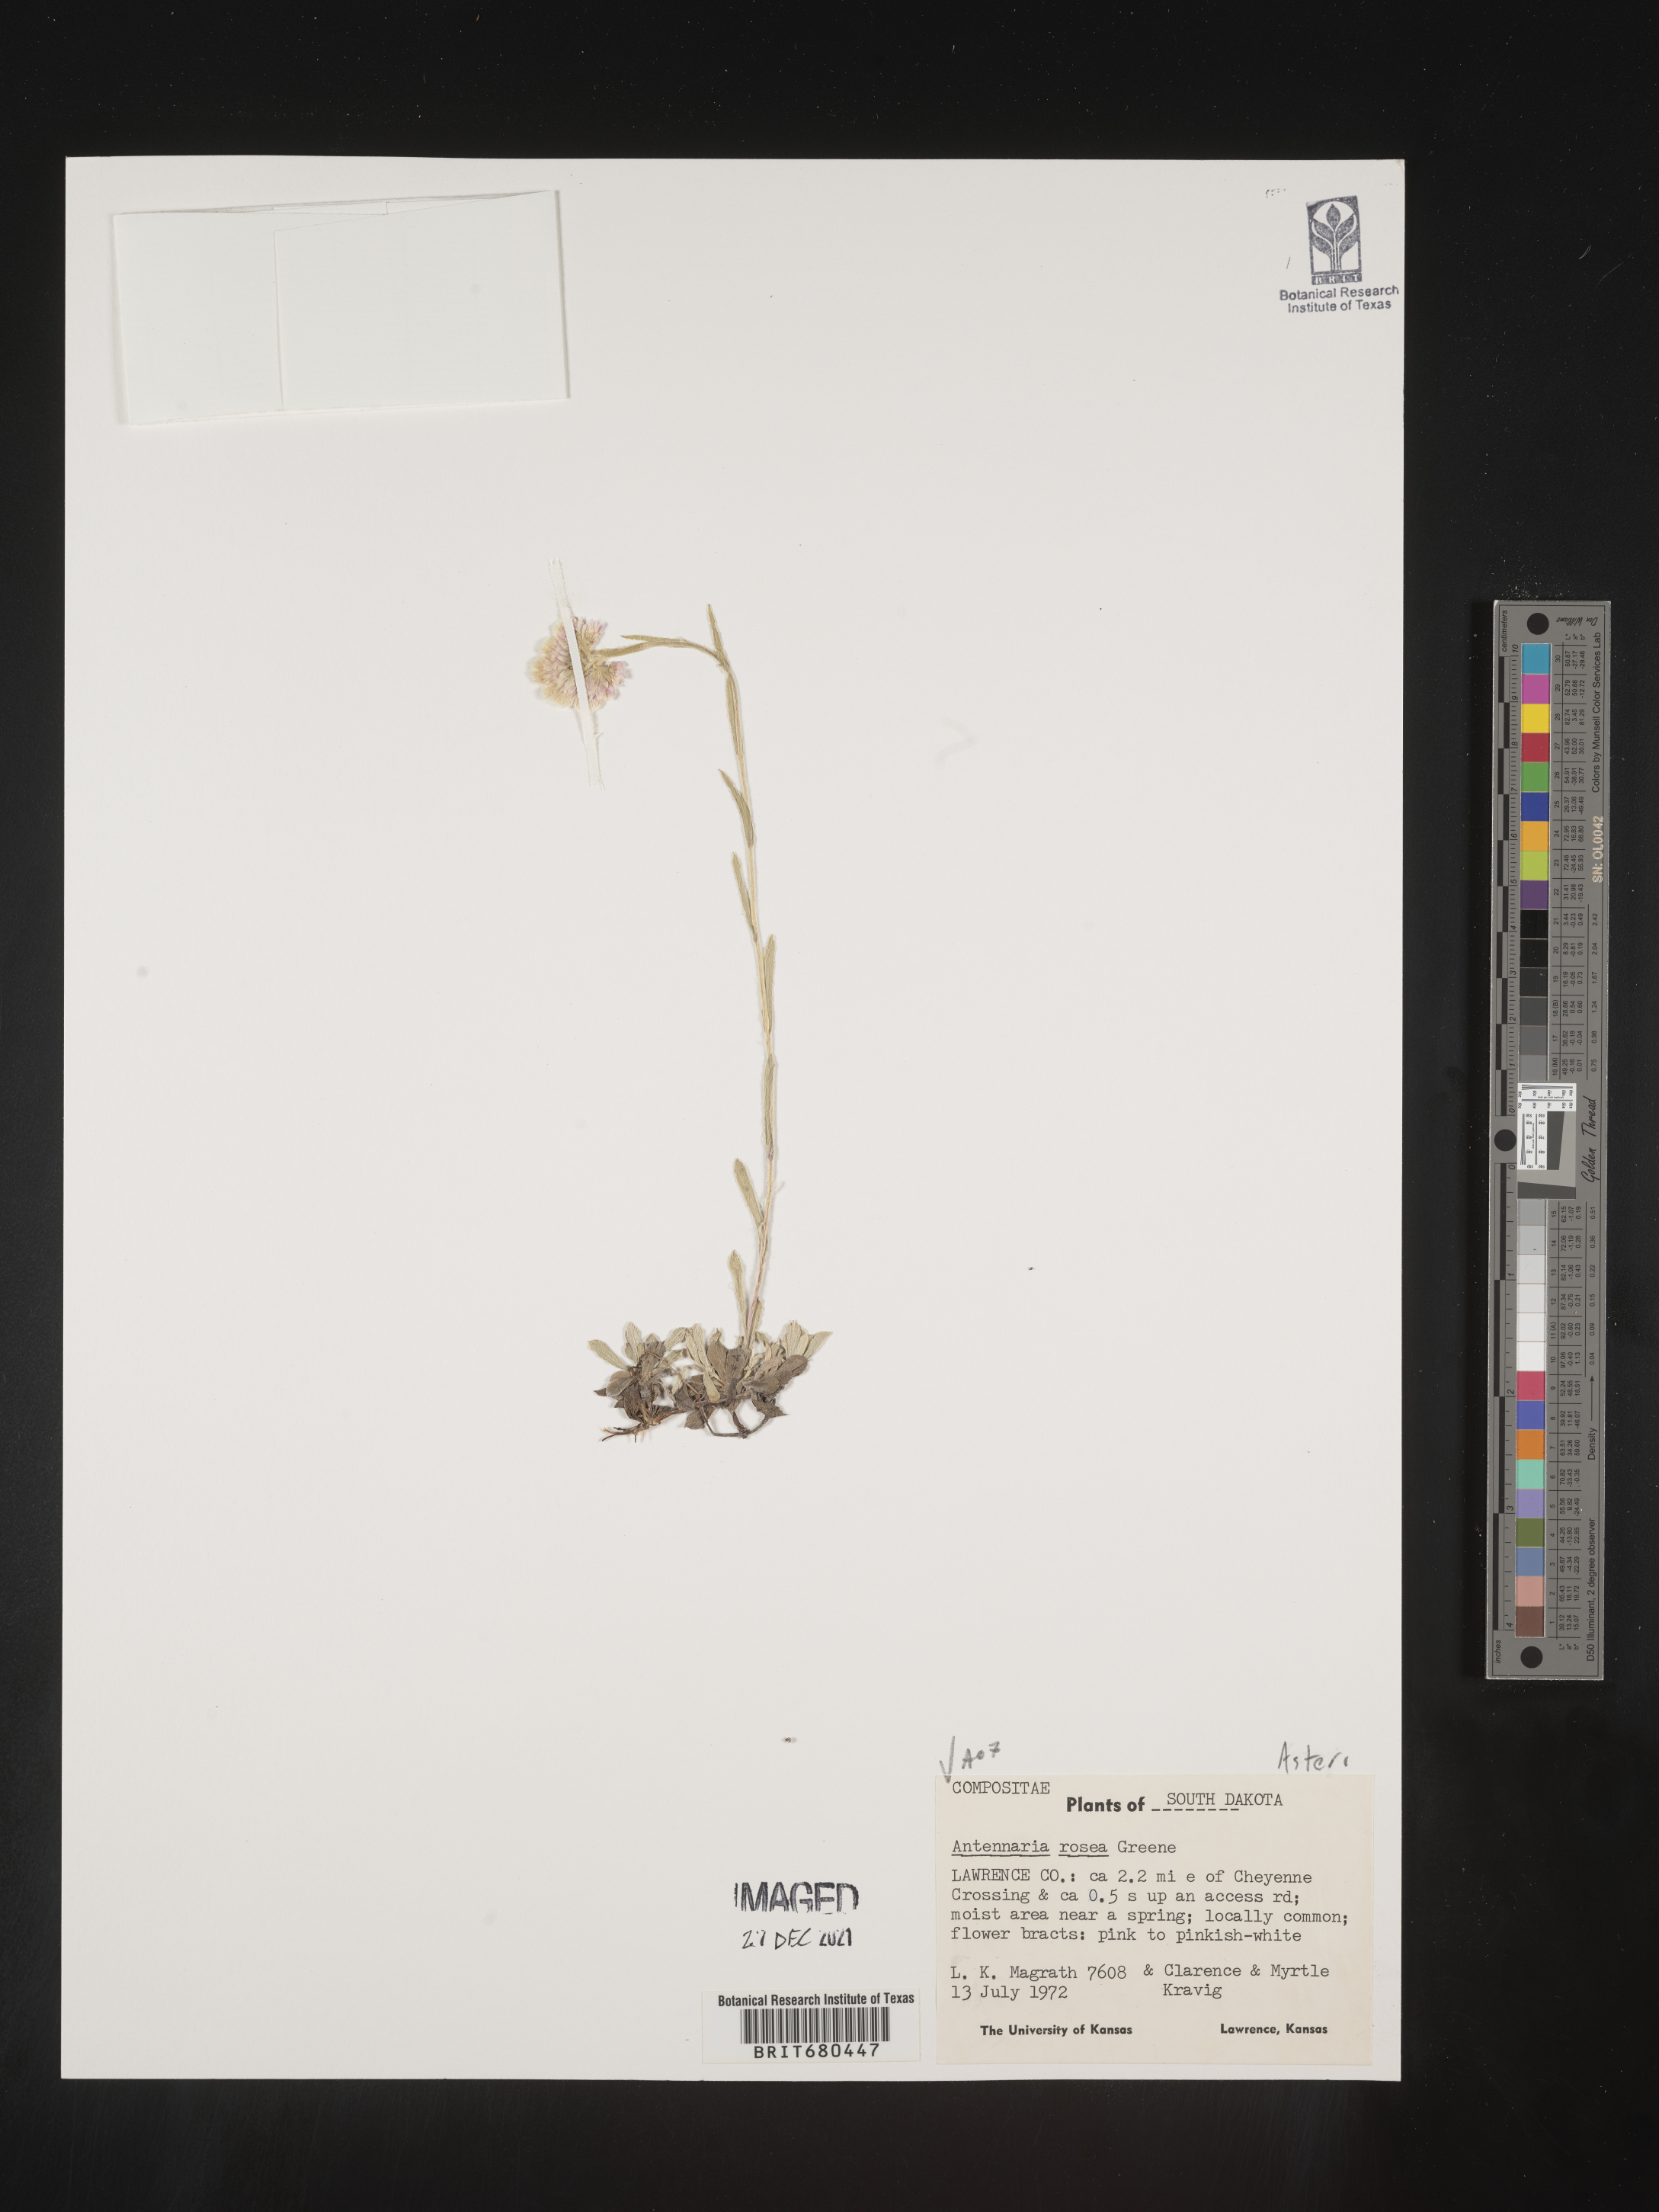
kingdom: Plantae
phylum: Tracheophyta
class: Magnoliopsida
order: Asterales
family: Asteraceae
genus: Antennaria
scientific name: Antennaria rosea
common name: Rosy pussytoes
